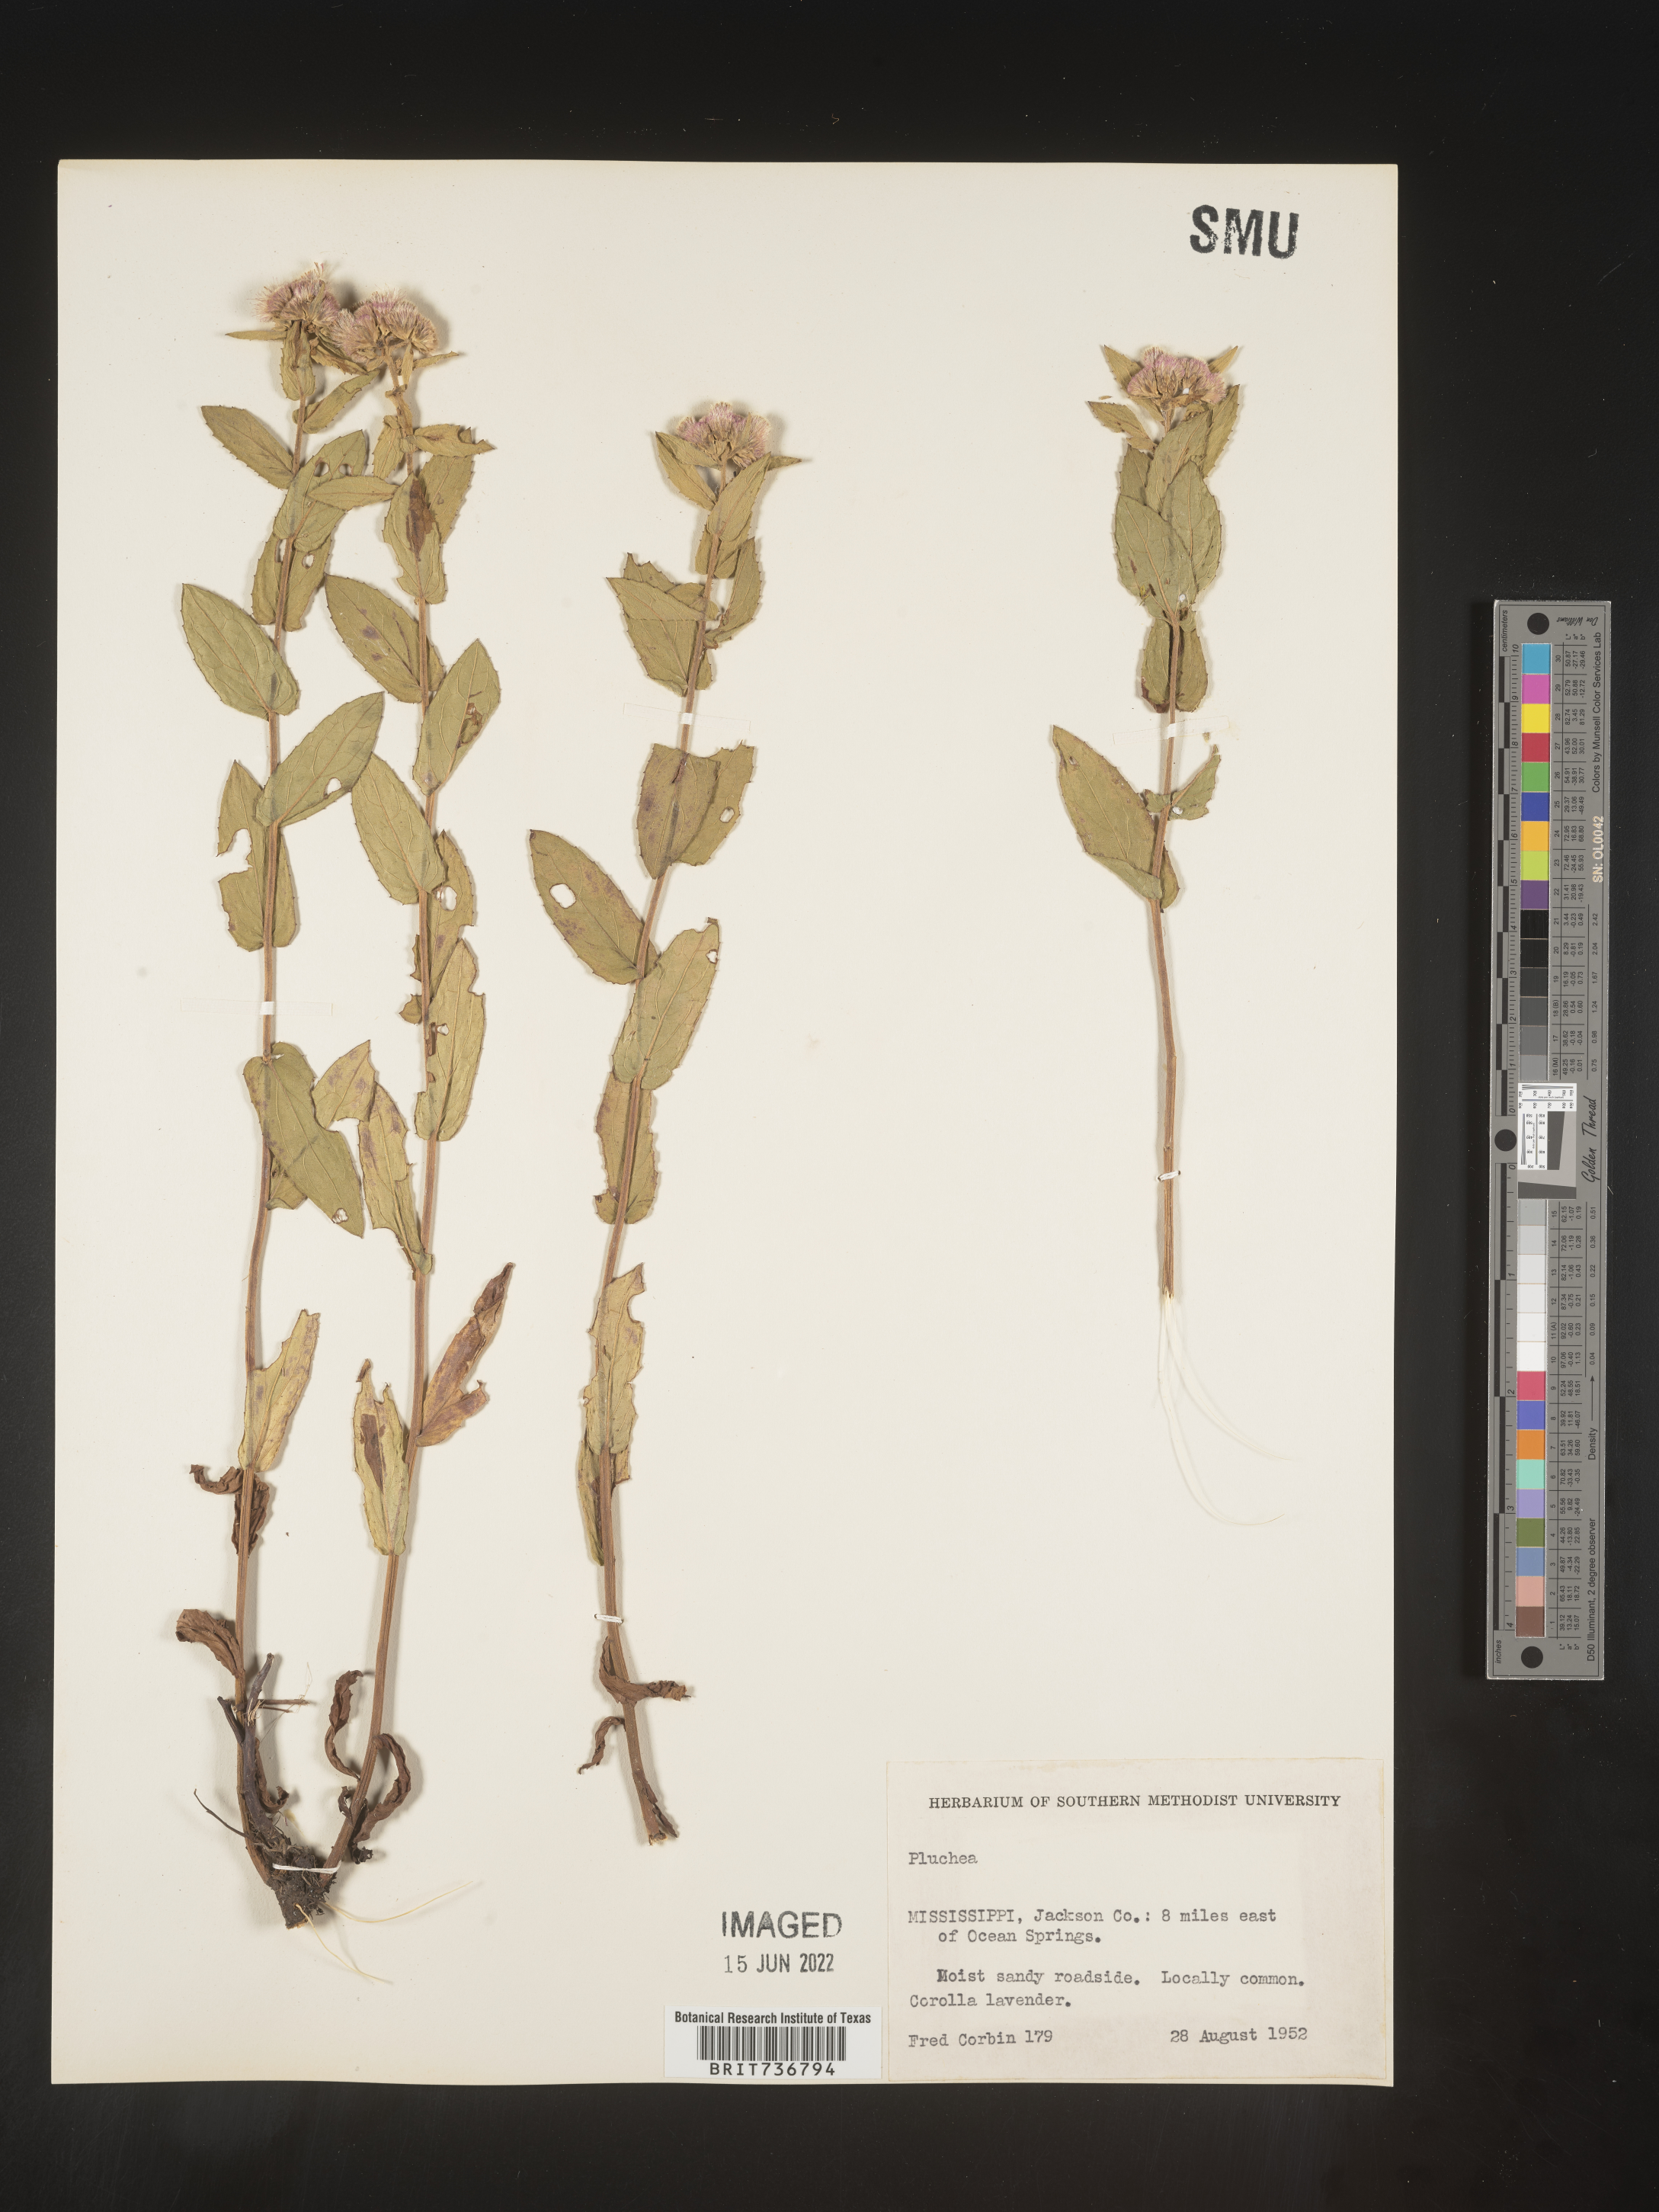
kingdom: Plantae
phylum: Tracheophyta
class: Magnoliopsida
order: Asterales
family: Asteraceae
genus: Pluchea
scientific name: Pluchea baccharis
